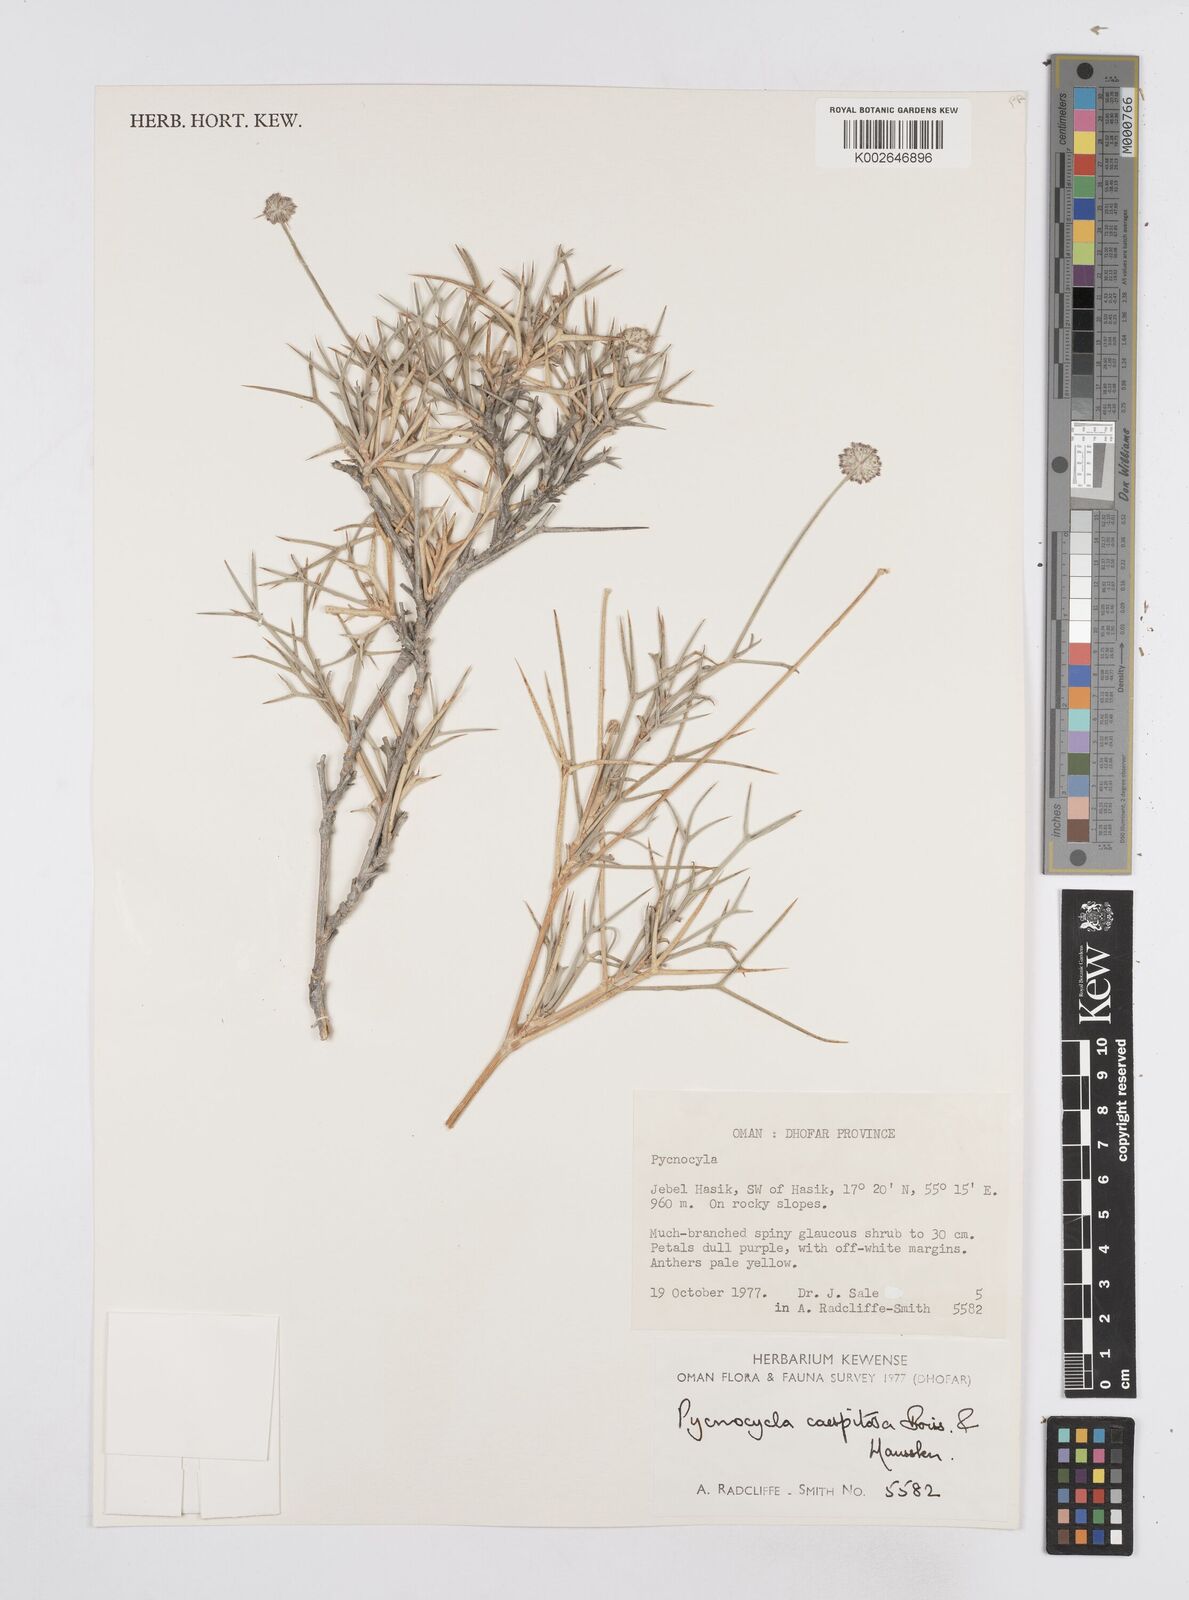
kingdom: Plantae
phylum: Tracheophyta
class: Magnoliopsida
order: Apiales
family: Apiaceae
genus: Pycnocycla
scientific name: Pycnocycla cespitosa
